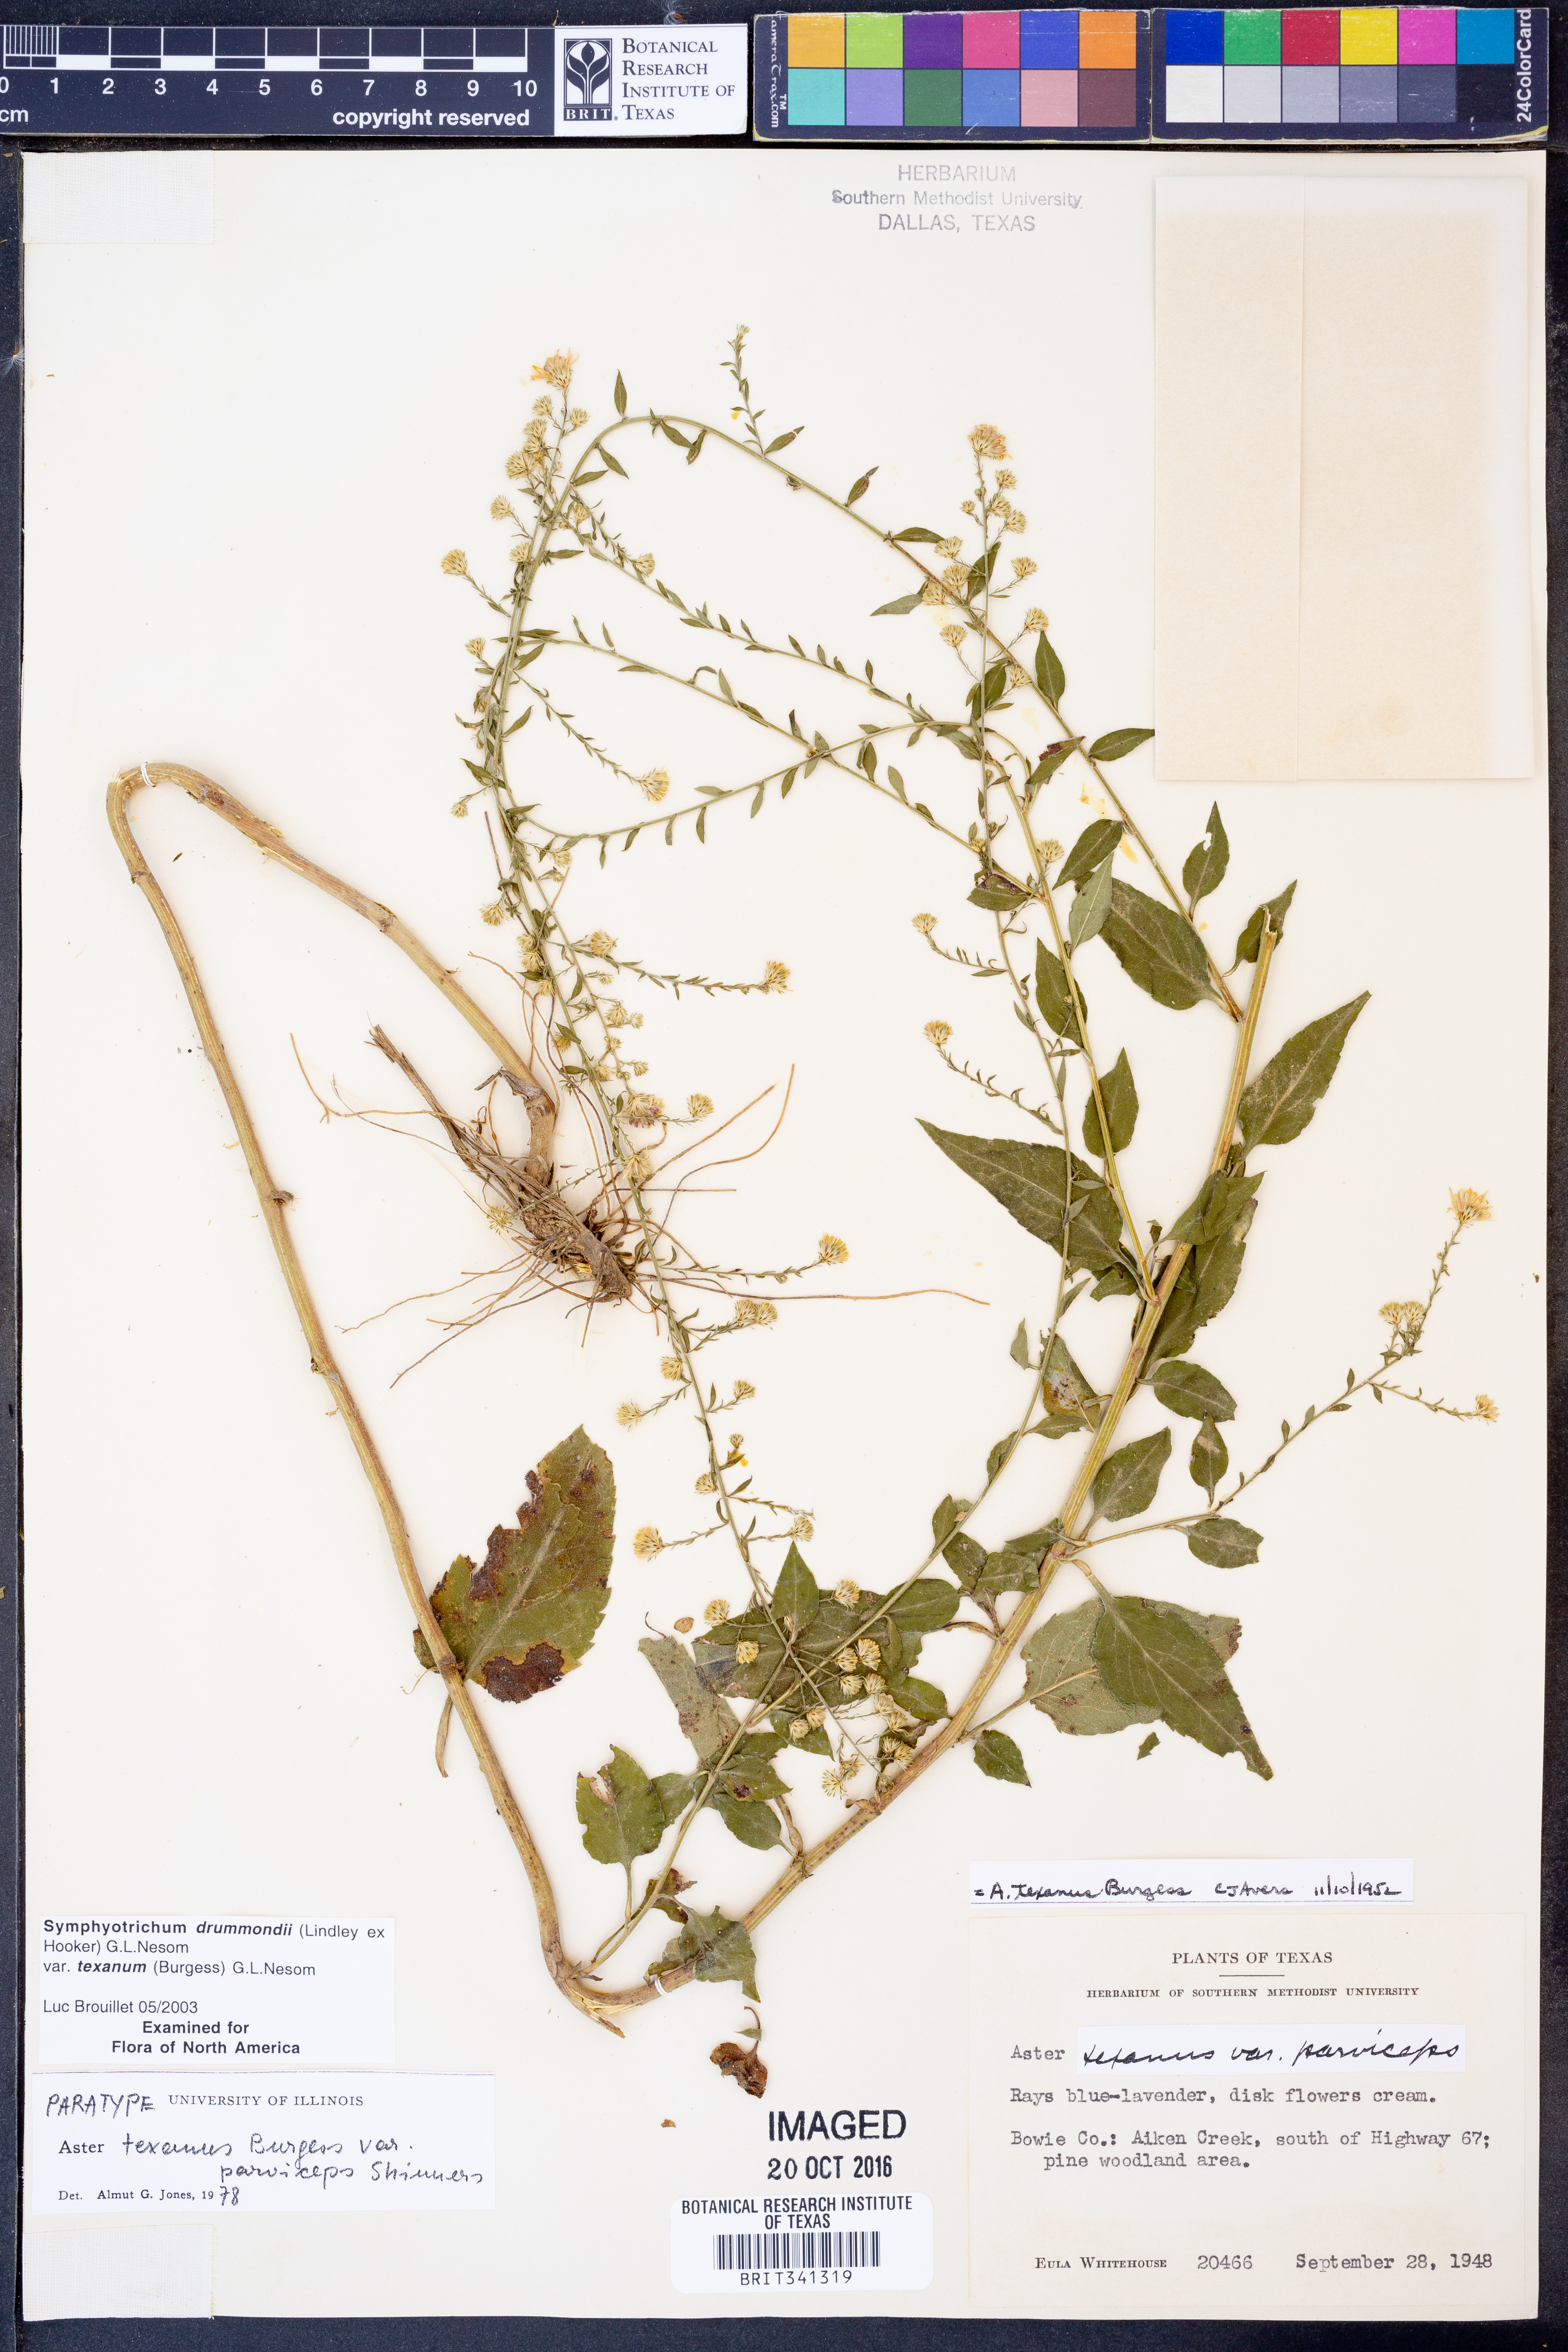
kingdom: Plantae
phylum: Tracheophyta
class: Magnoliopsida
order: Asterales
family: Asteraceae
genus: Symphyotrichum
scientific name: Symphyotrichum drummondii
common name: Drummond's aster
